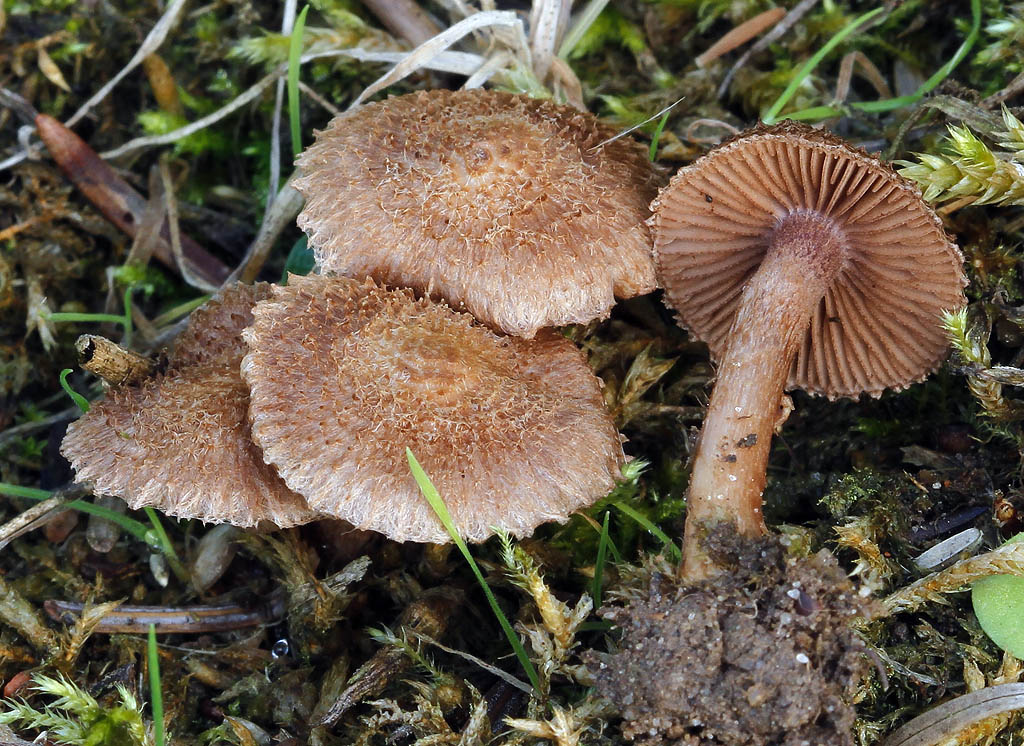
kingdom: Fungi
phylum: Basidiomycota
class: Agaricomycetes
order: Agaricales
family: Inocybaceae
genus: Inocybe
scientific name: Inocybe cincinnata
